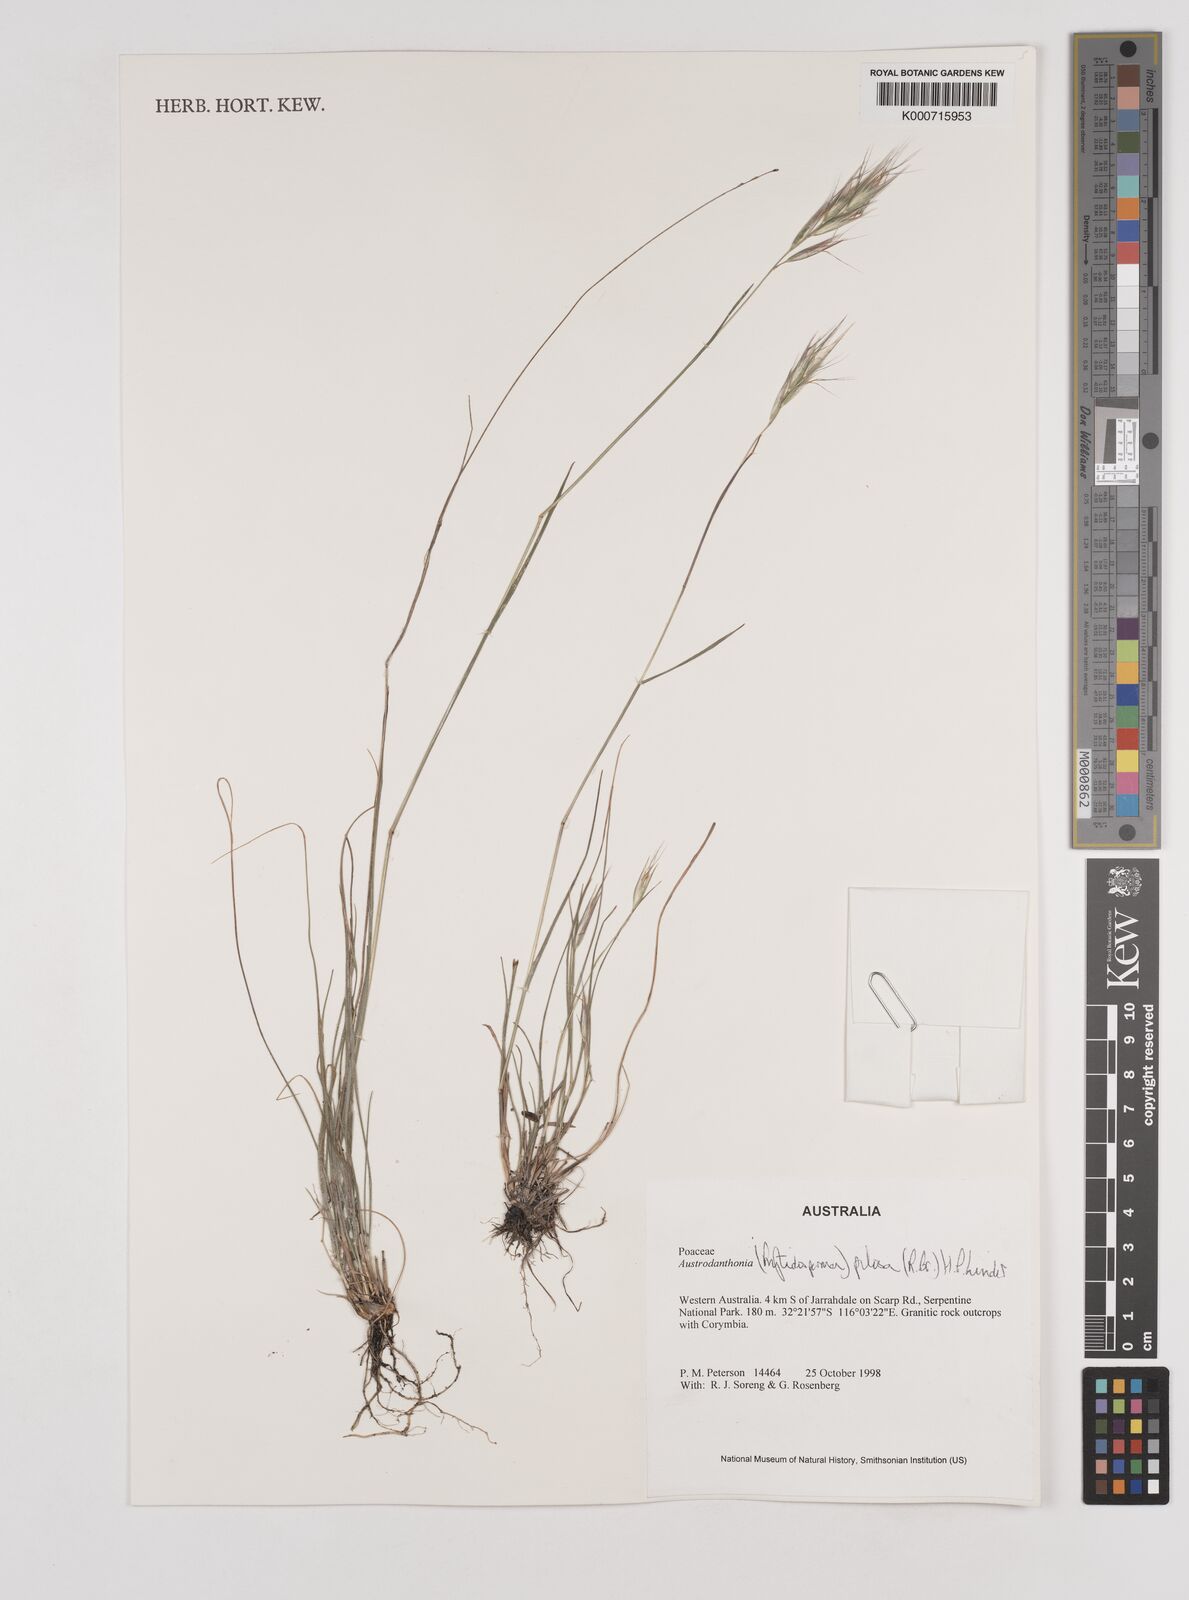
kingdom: Plantae
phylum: Tracheophyta
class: Liliopsida
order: Poales
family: Poaceae
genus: Rytidosperma
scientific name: Rytidosperma pilosum
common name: Hairy wallaby grass
